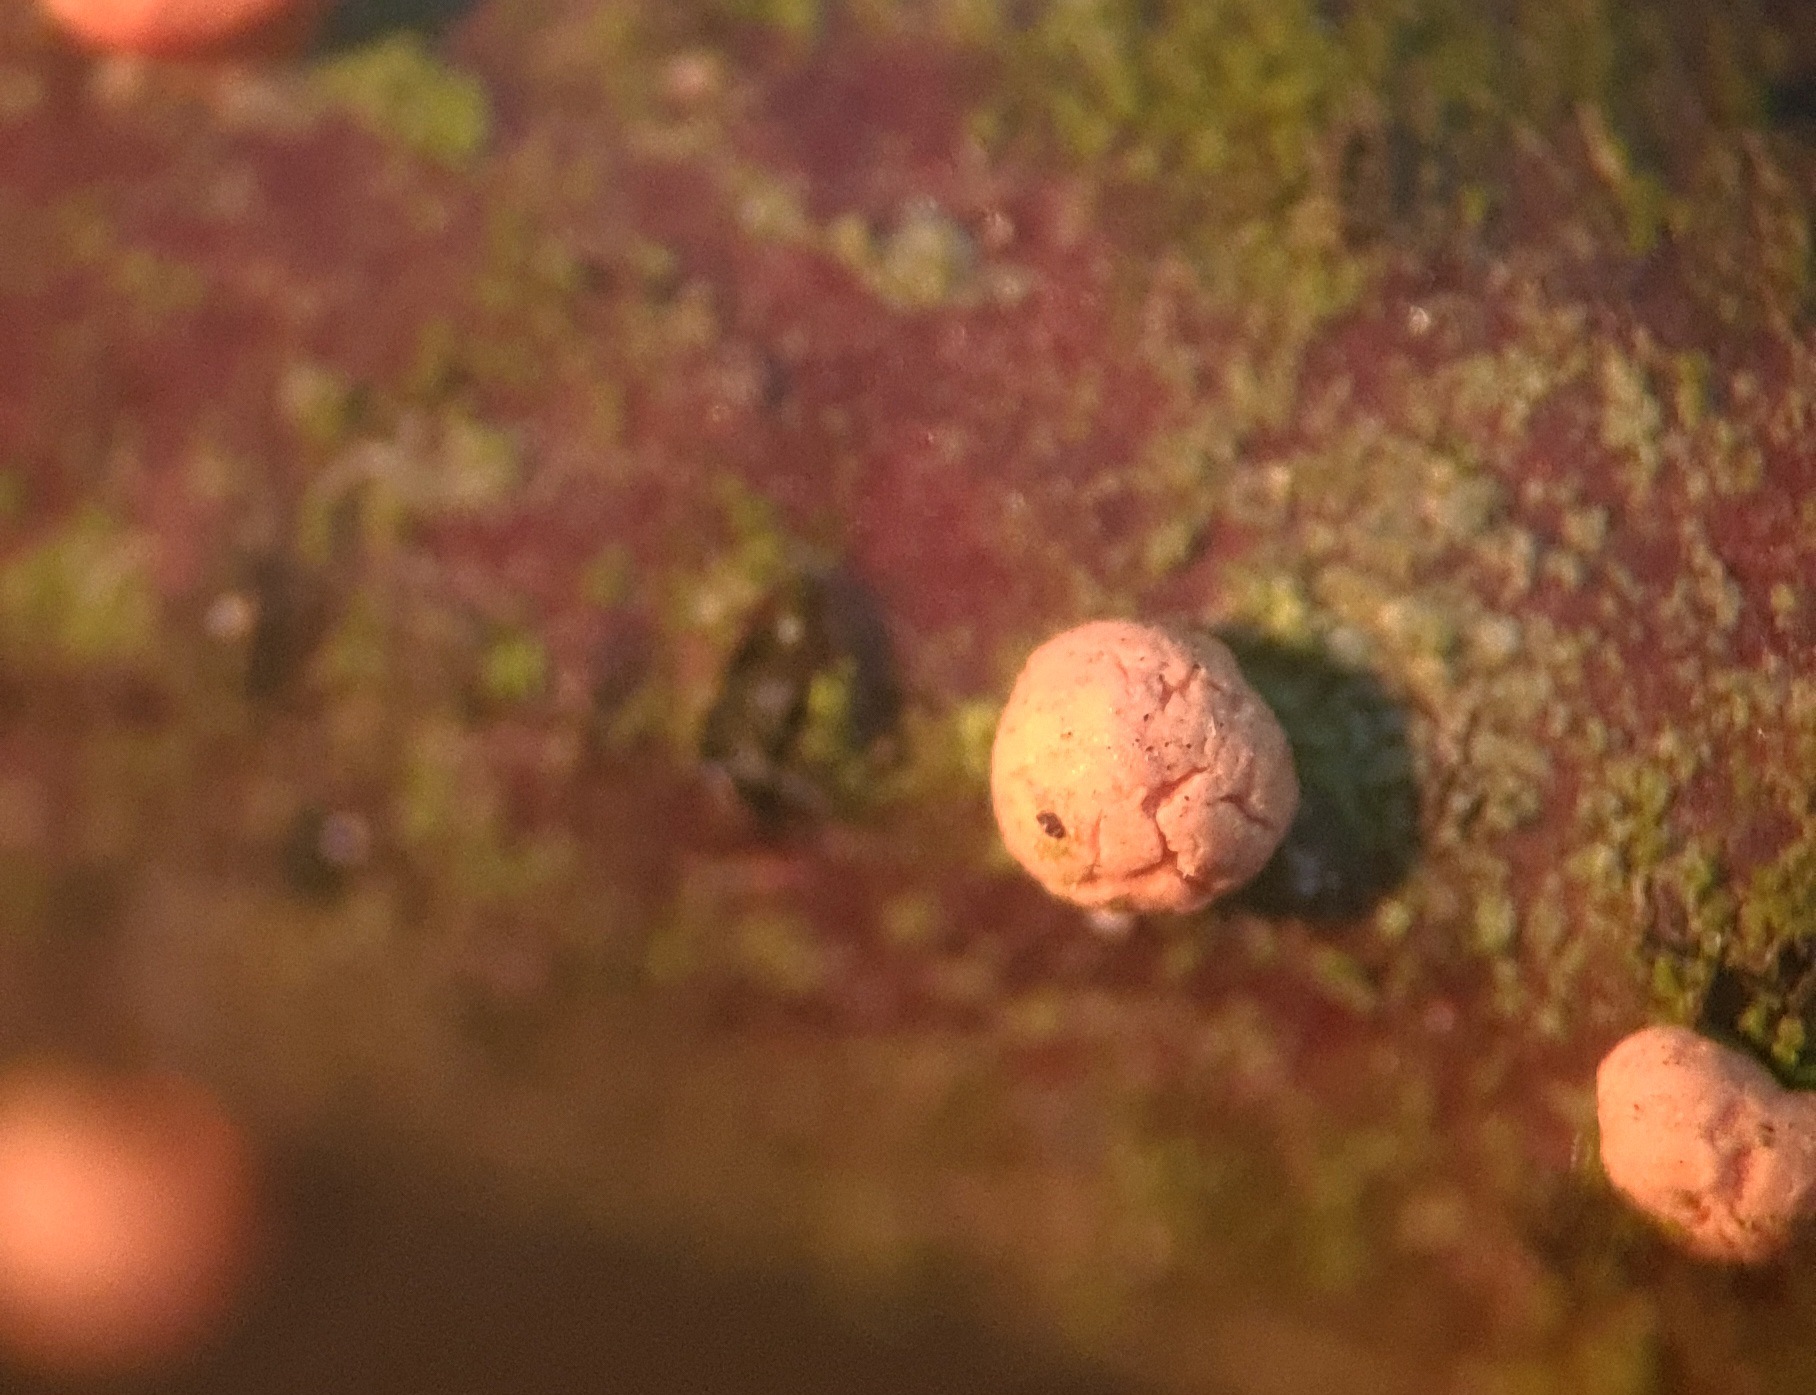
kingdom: Fungi
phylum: Ascomycota
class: Sordariomycetes
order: Hypocreales
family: Nectriaceae
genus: Nectria
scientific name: Nectria cinnabarina
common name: almindelig cinnobersvamp
